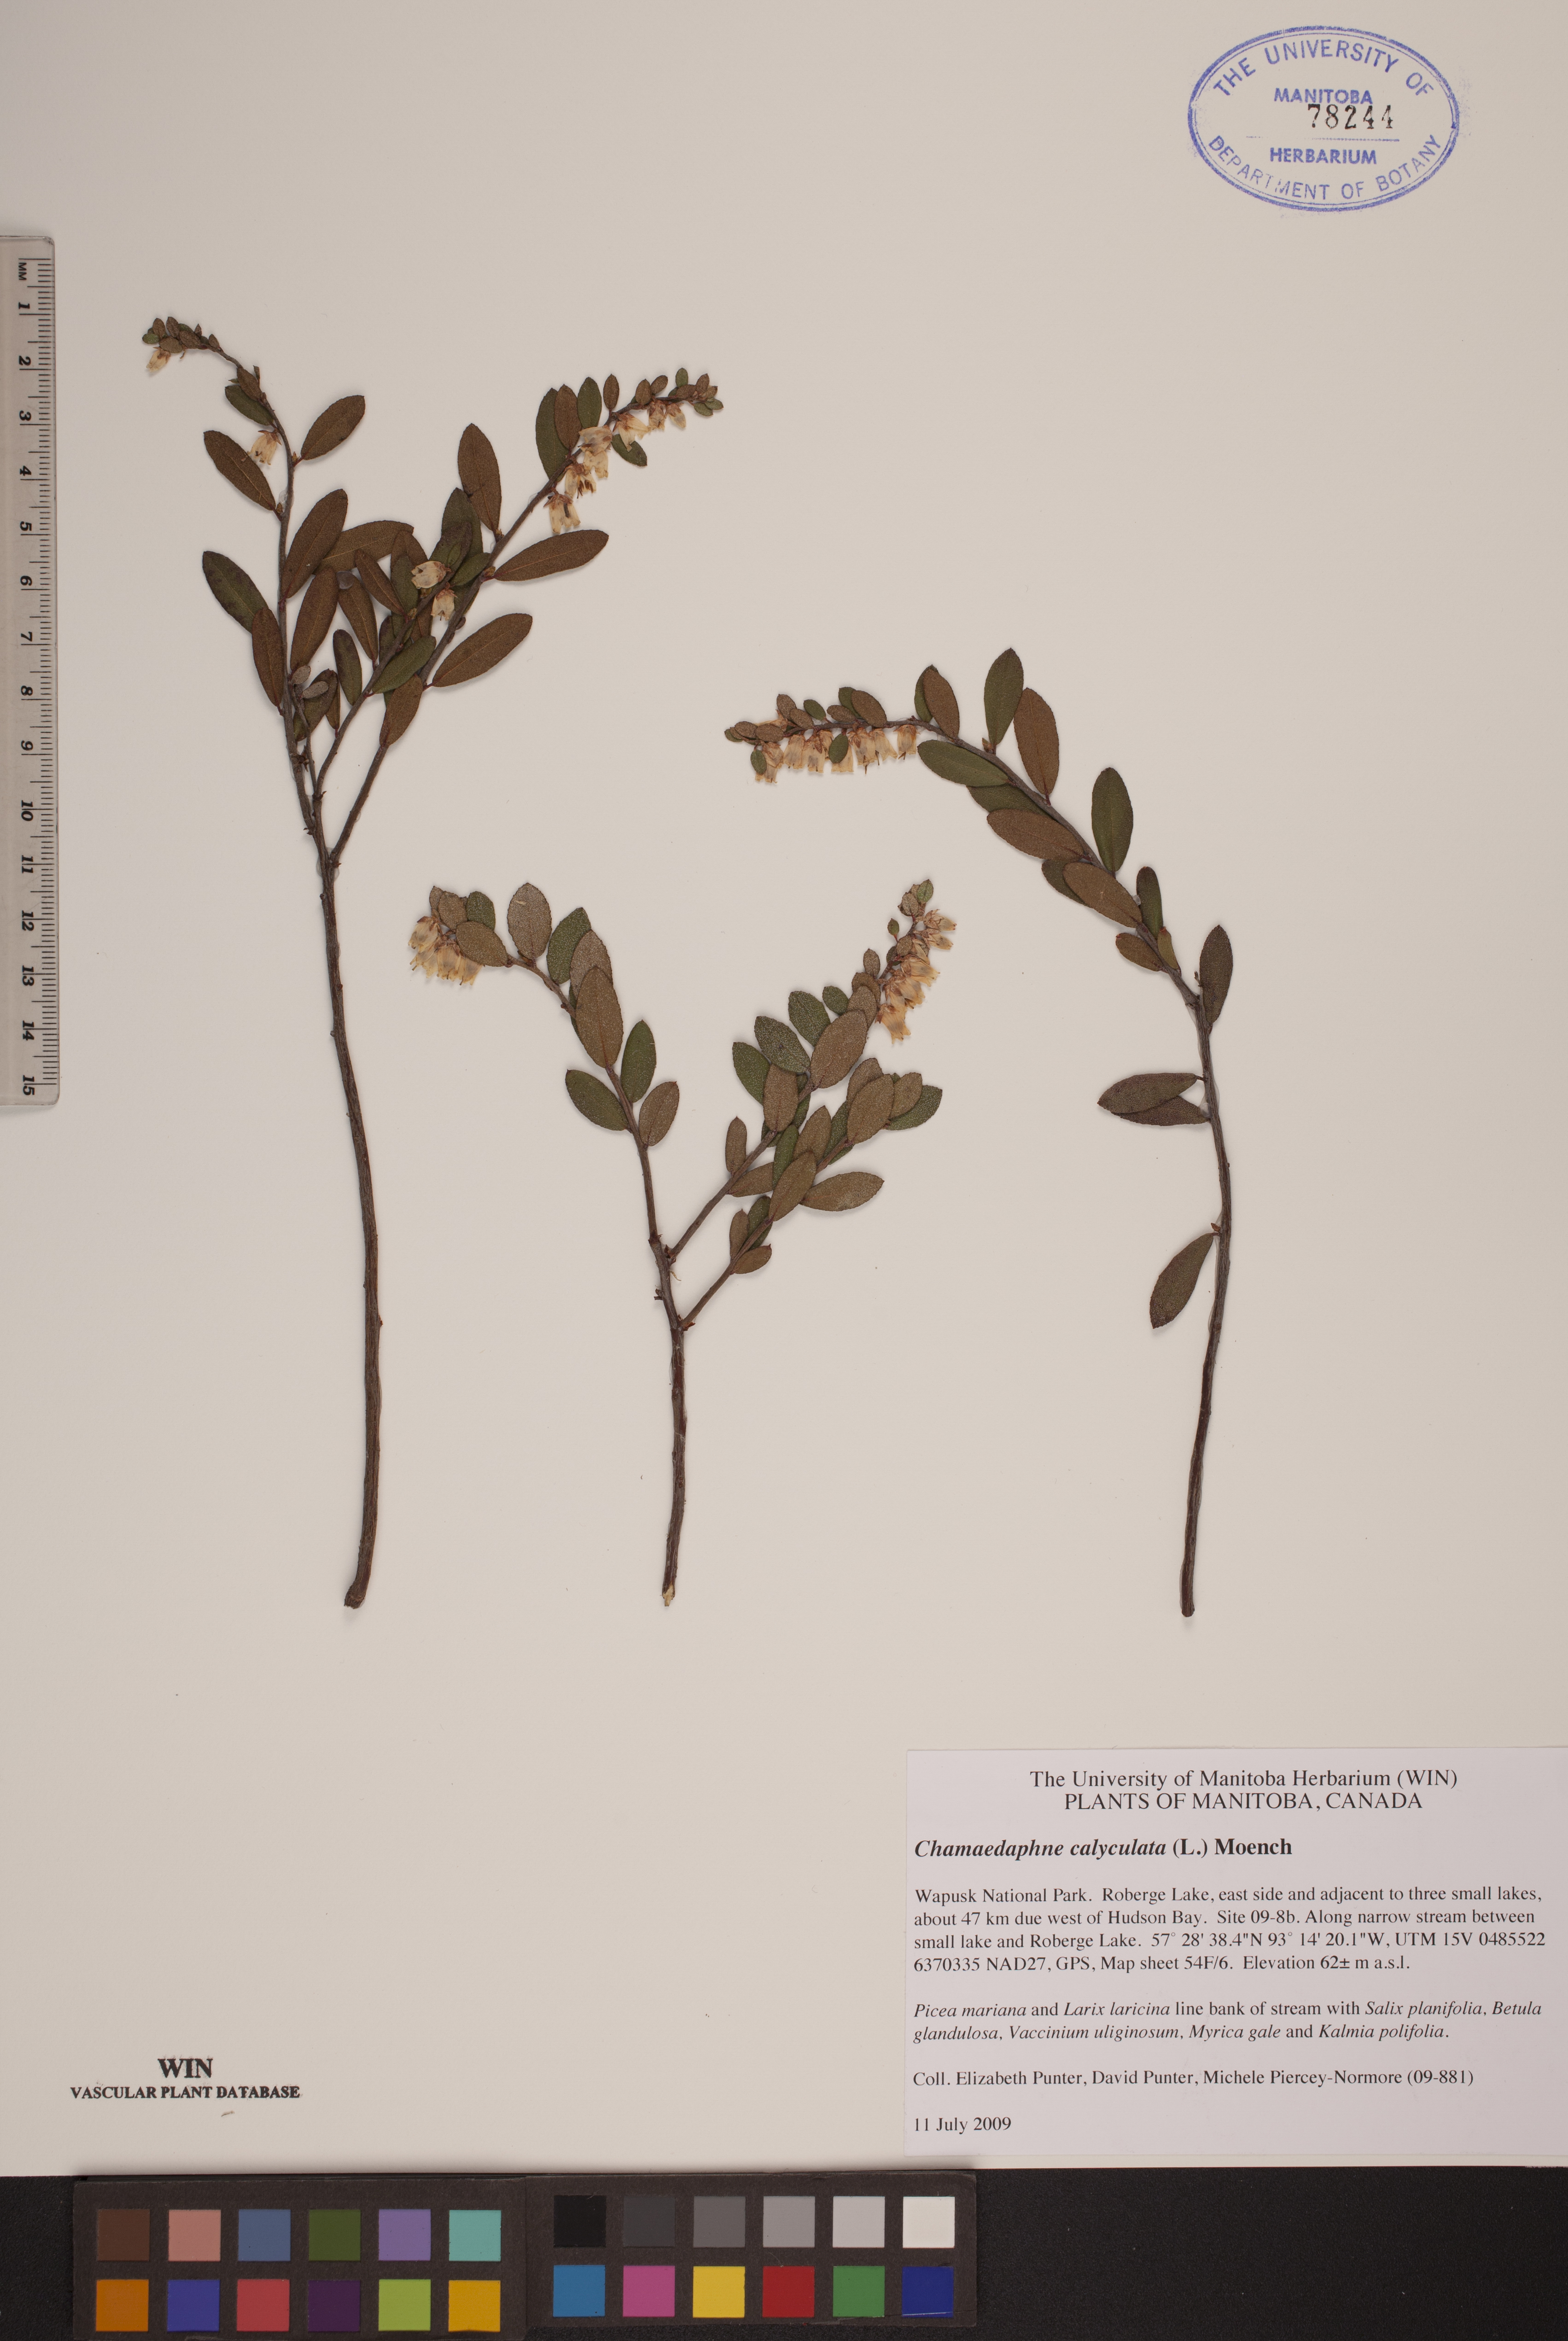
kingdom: Plantae
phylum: Tracheophyta
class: Magnoliopsida
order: Ericales
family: Ericaceae
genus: Chamaedaphne
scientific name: Chamaedaphne calyculata
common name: Leatherleaf
